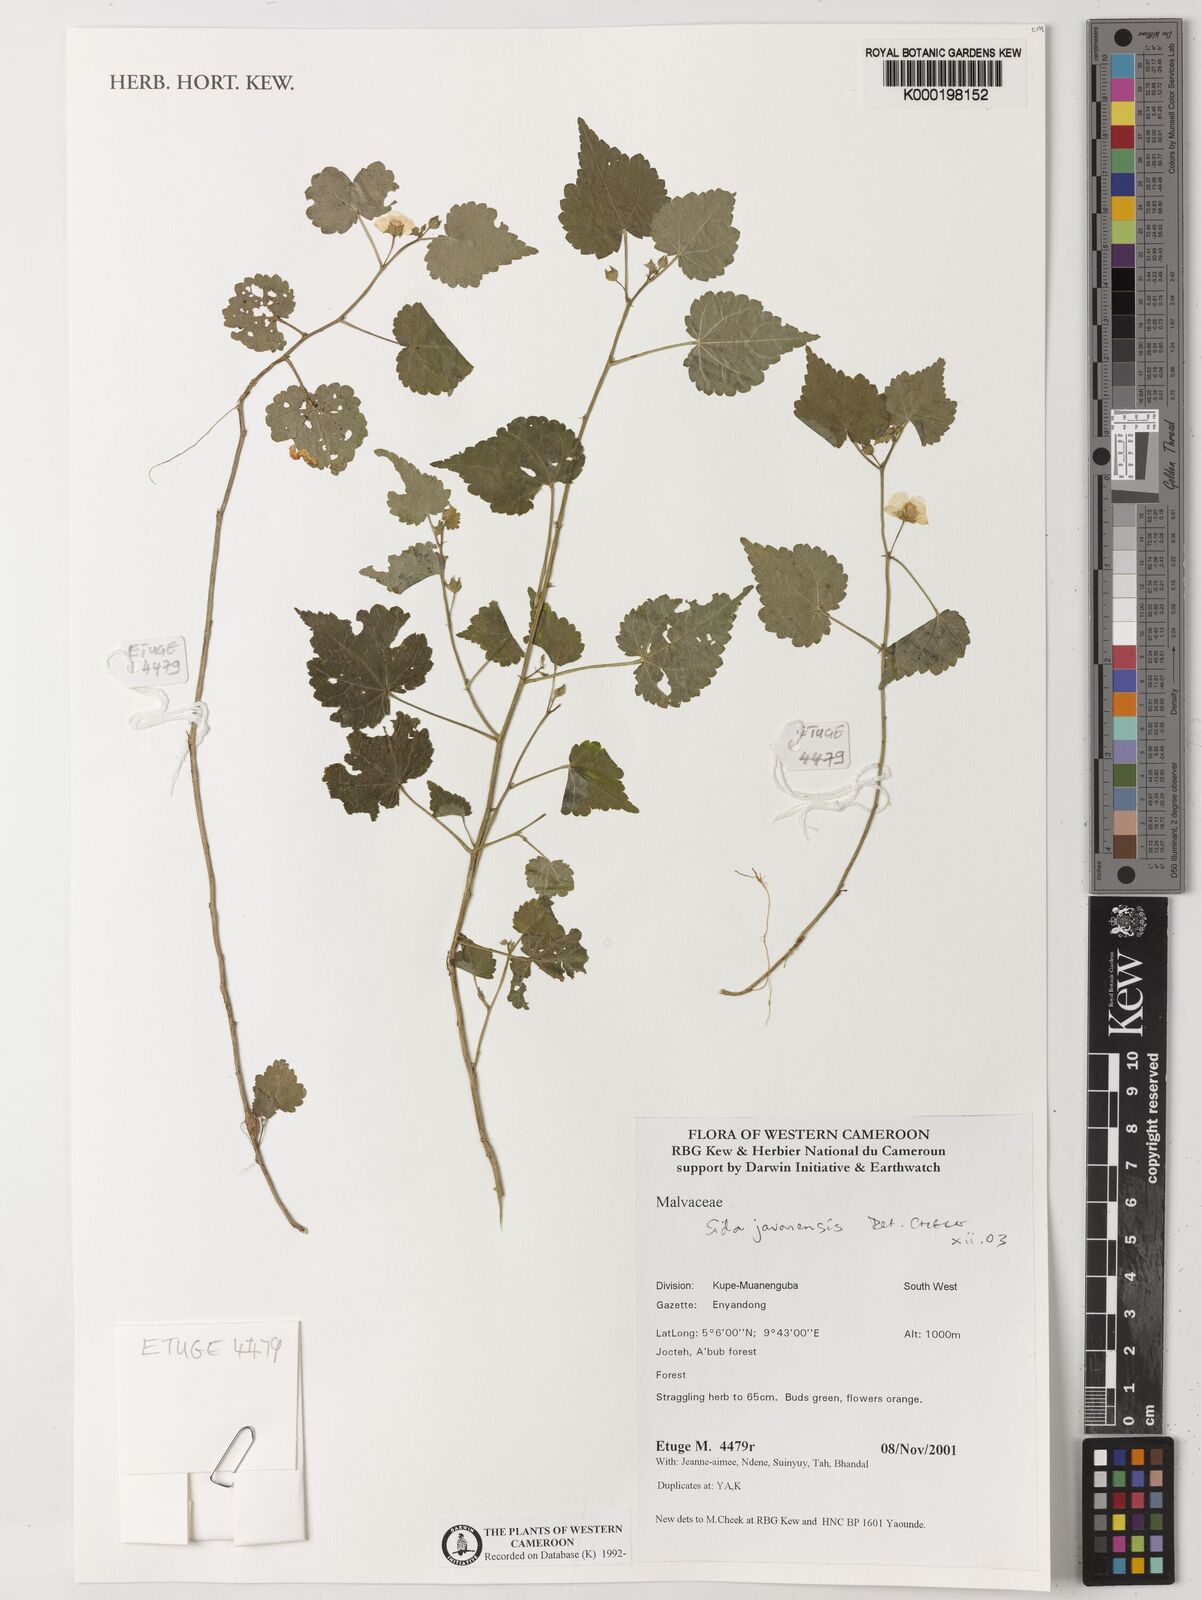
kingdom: Plantae
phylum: Tracheophyta
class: Magnoliopsida
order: Malvales
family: Malvaceae
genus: Sida
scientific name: Sida
